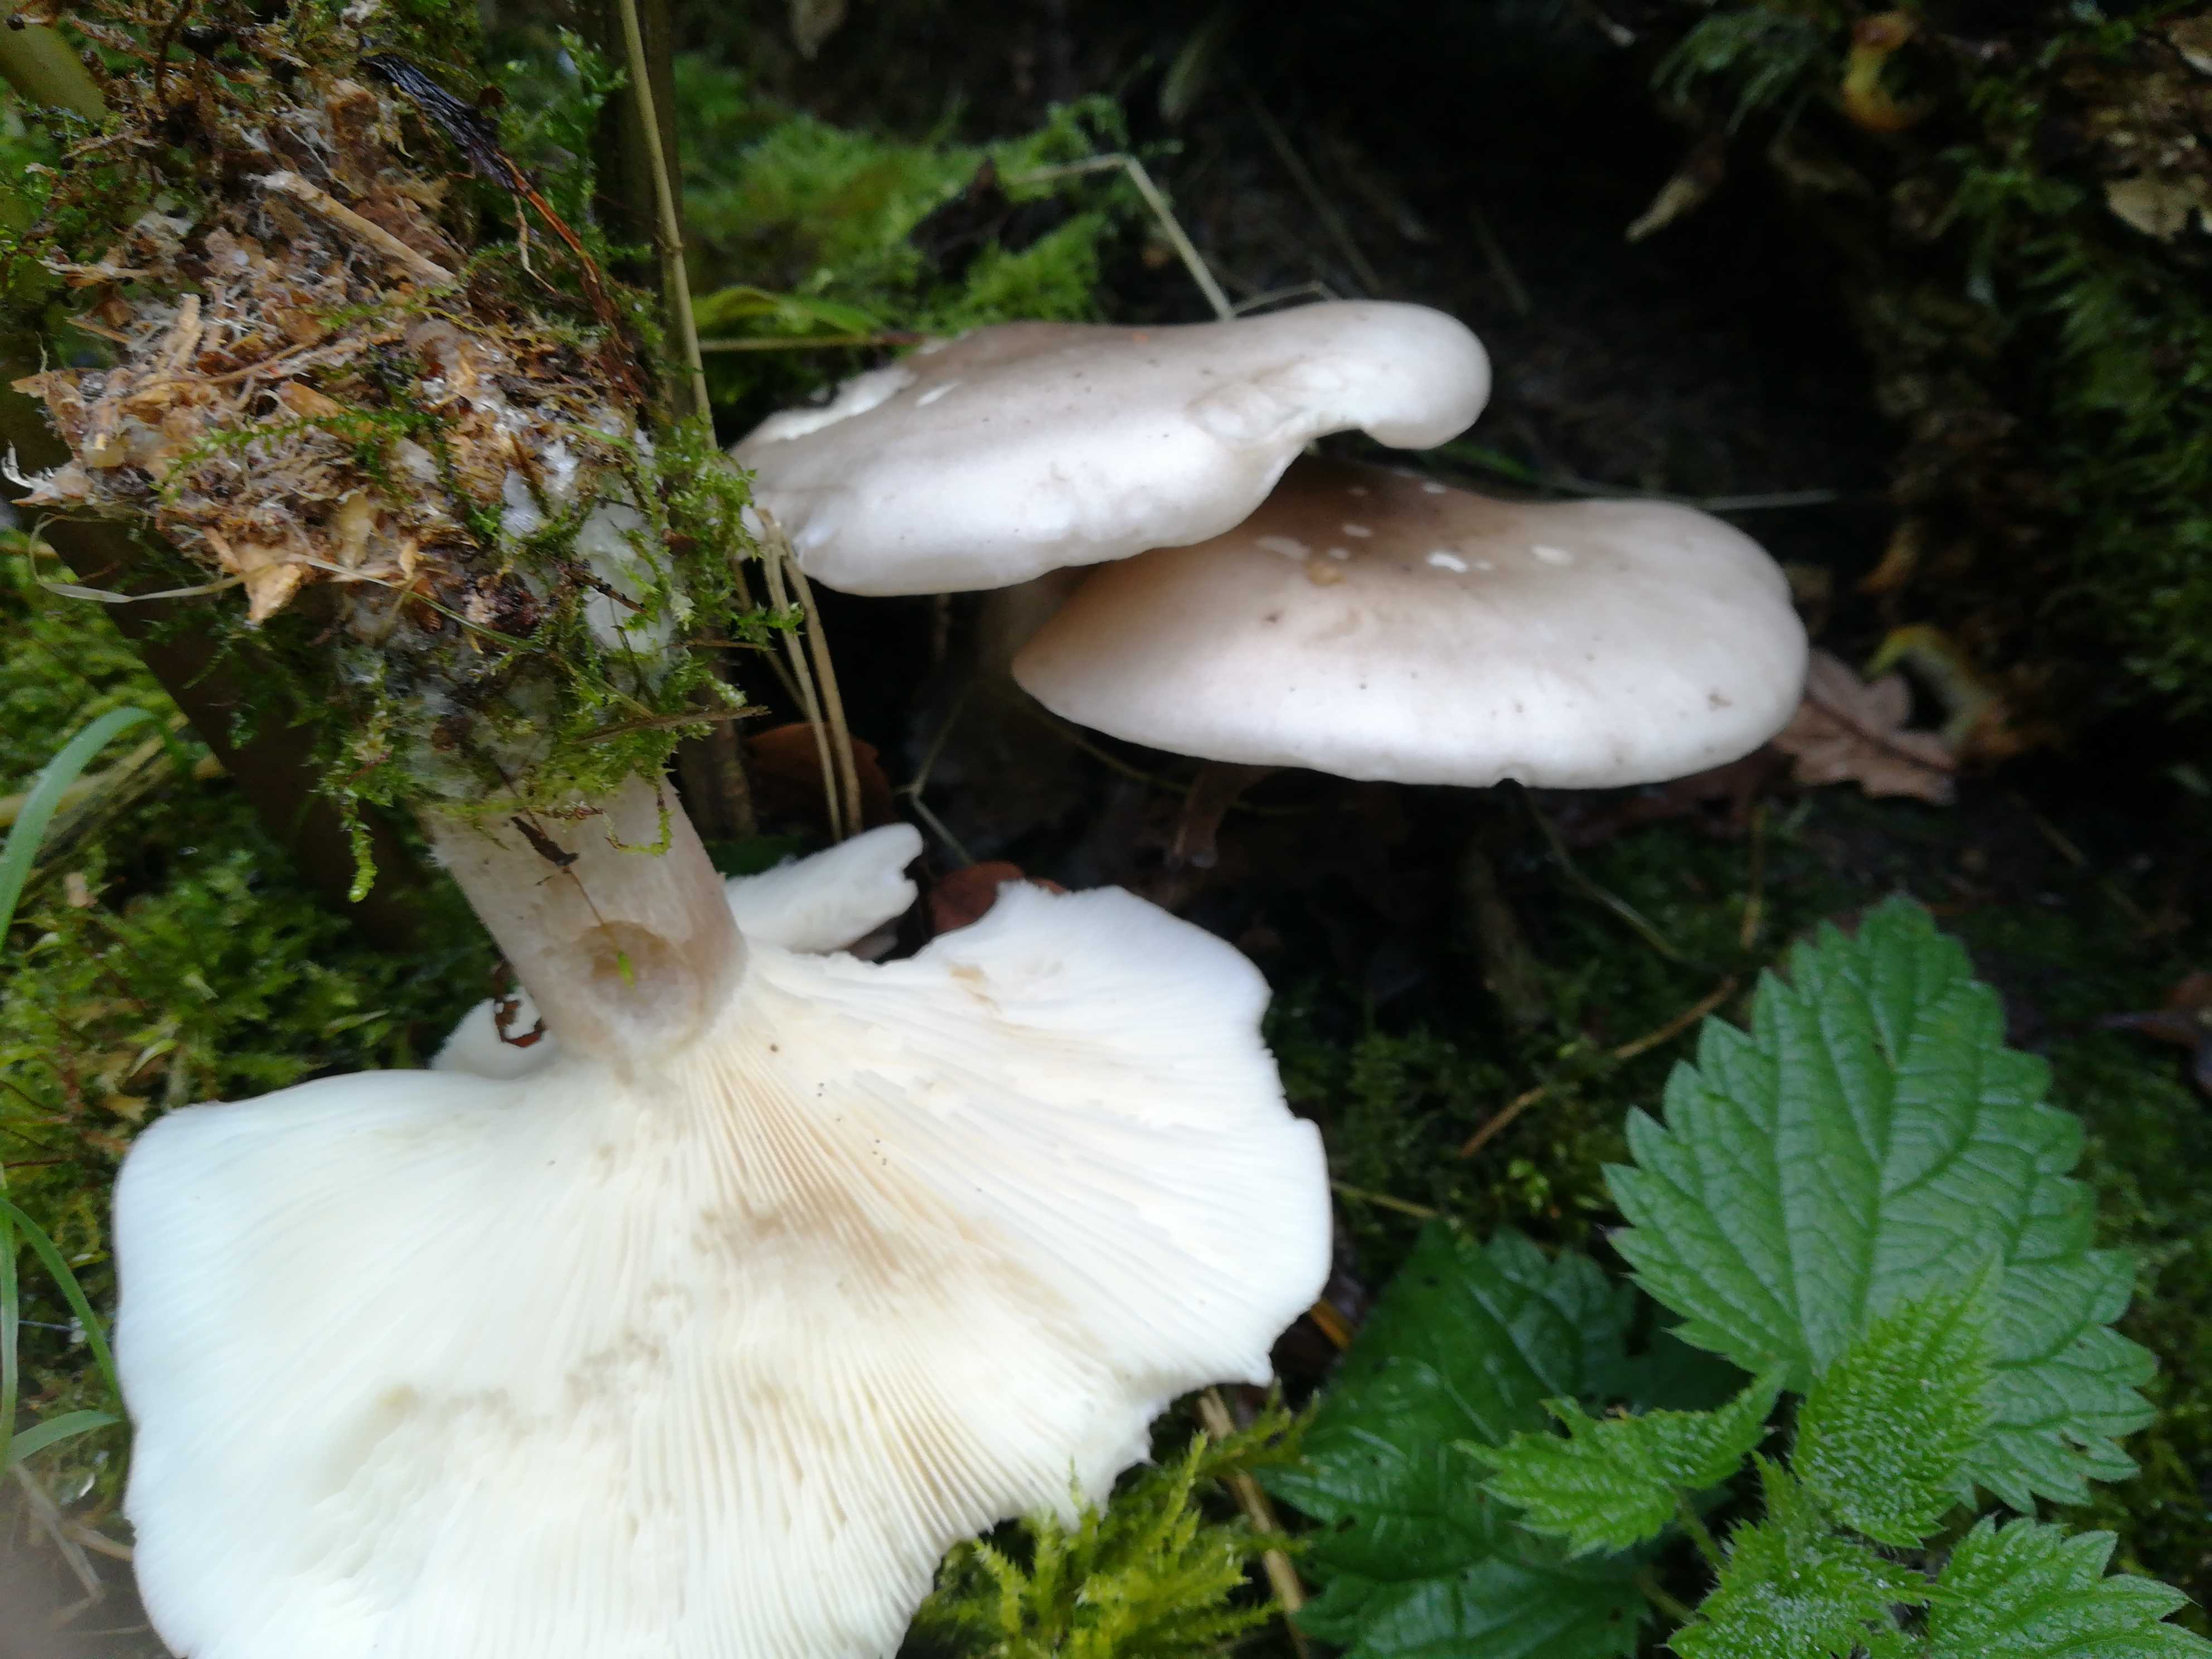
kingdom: Fungi
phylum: Basidiomycota
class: Agaricomycetes
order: Agaricales
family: Tricholomataceae
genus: Clitocybe
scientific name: Clitocybe nebularis
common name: tåge-tragthat
